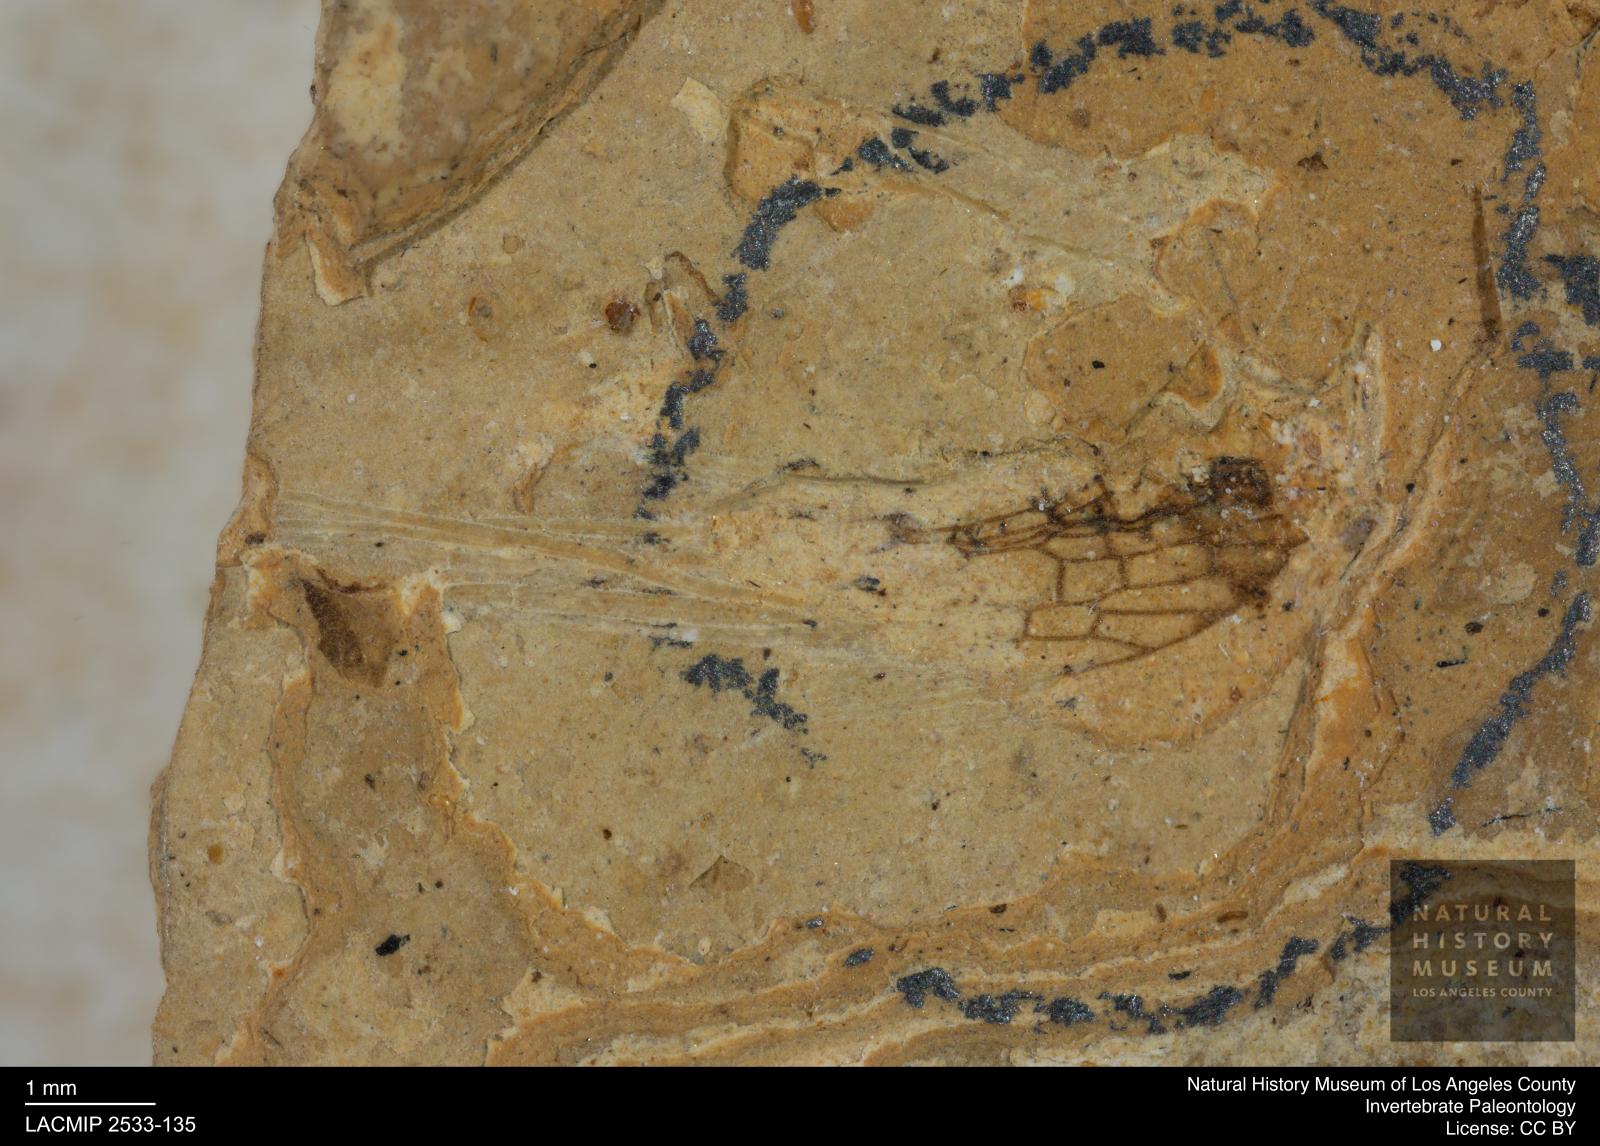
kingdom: Animalia
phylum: Arthropoda
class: Insecta
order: Hemiptera
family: Cixiidae
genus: Cixius
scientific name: Cixius
